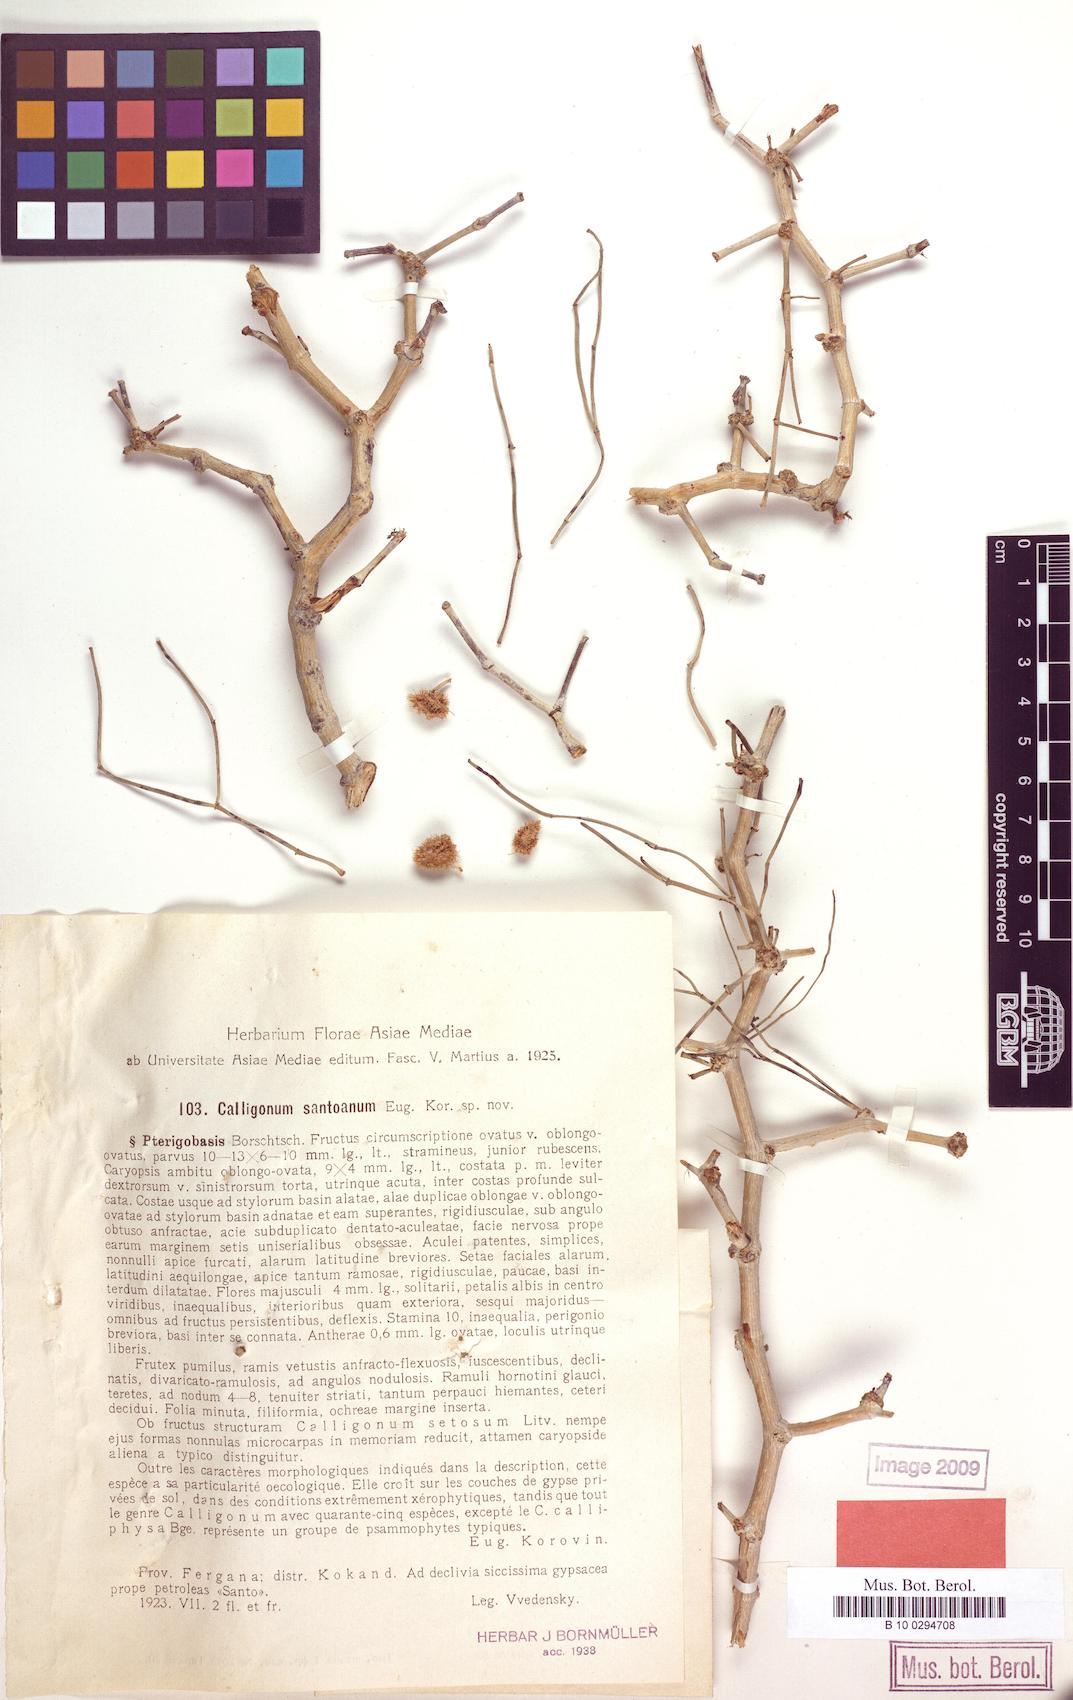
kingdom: Plantae
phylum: Tracheophyta
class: Magnoliopsida
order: Caryophyllales
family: Polygonaceae
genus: Calligonum
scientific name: Calligonum santoanum
